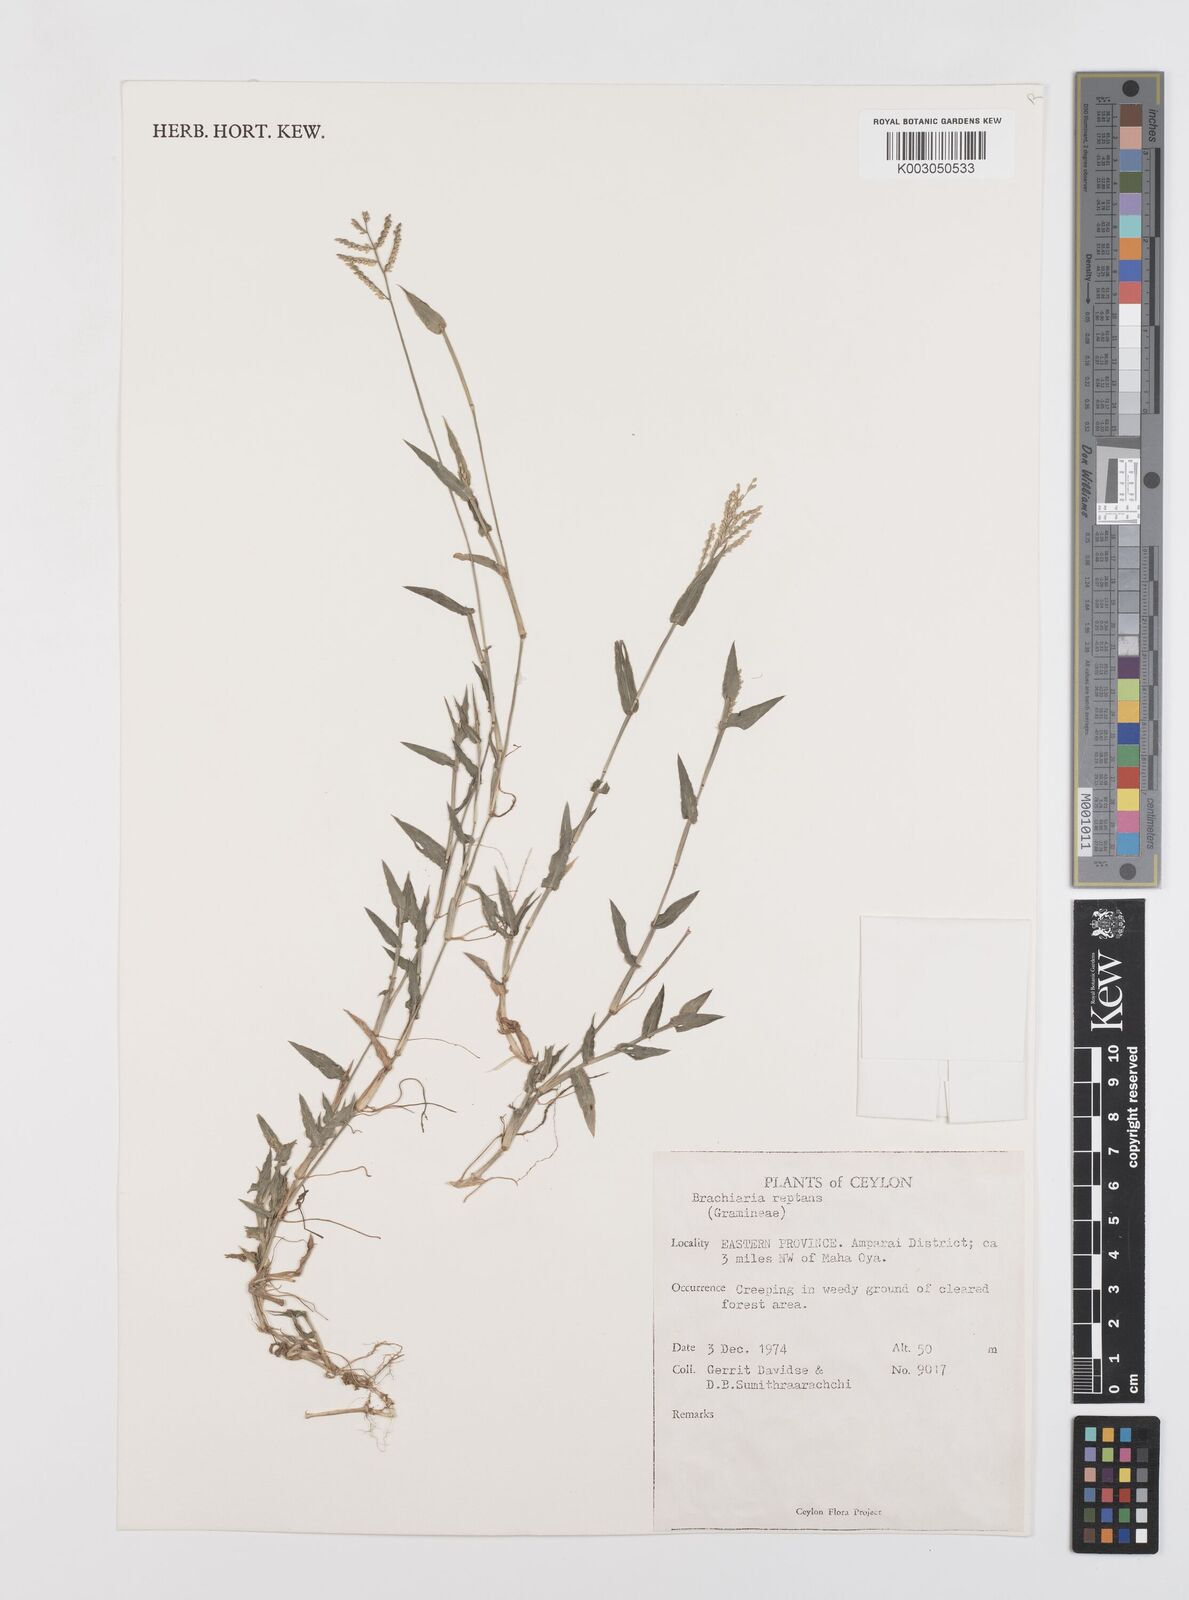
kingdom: Plantae
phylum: Tracheophyta
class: Liliopsida
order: Poales
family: Poaceae
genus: Urochloa
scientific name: Urochloa reptans
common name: Sprawling signalgrass
